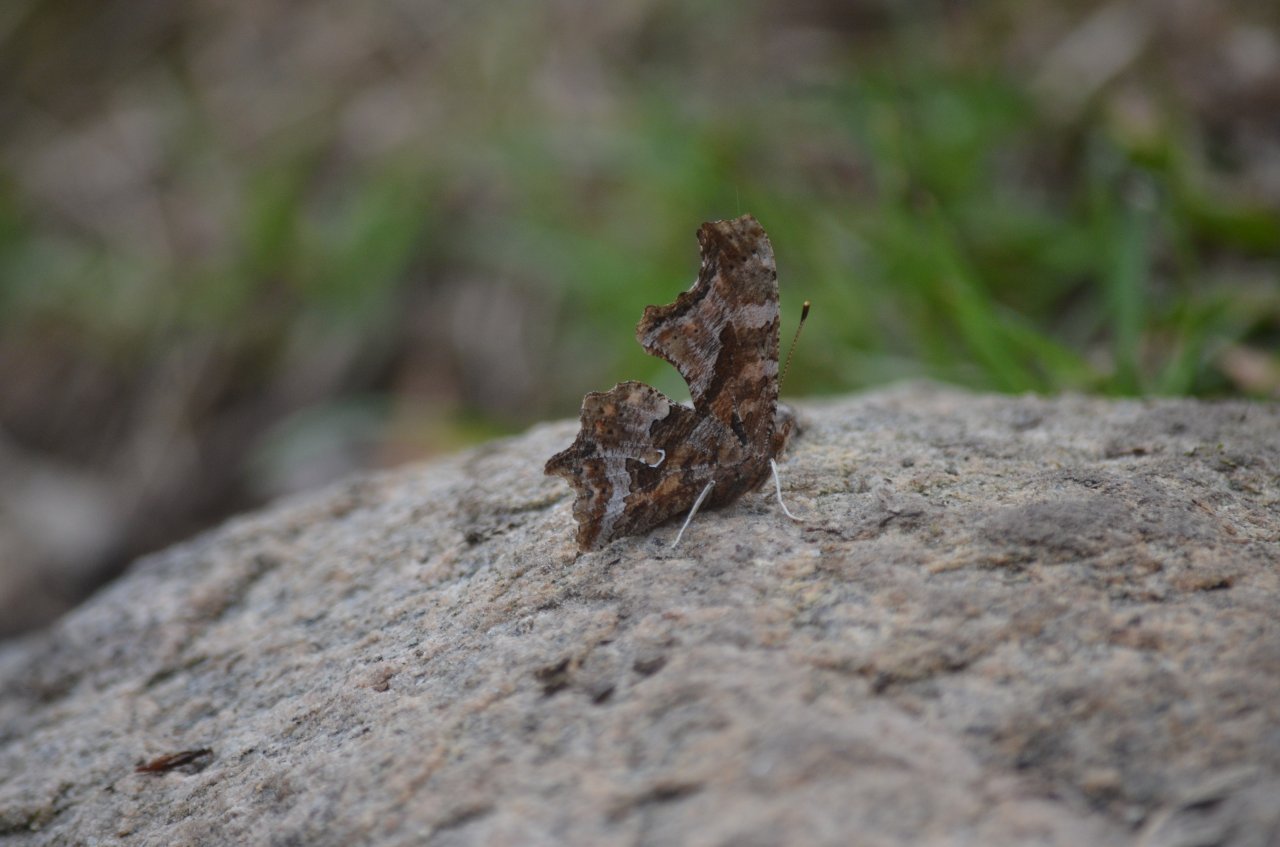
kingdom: Animalia
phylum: Arthropoda
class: Insecta
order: Lepidoptera
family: Nymphalidae
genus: Polygonia
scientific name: Polygonia comma
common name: Eastern Comma
